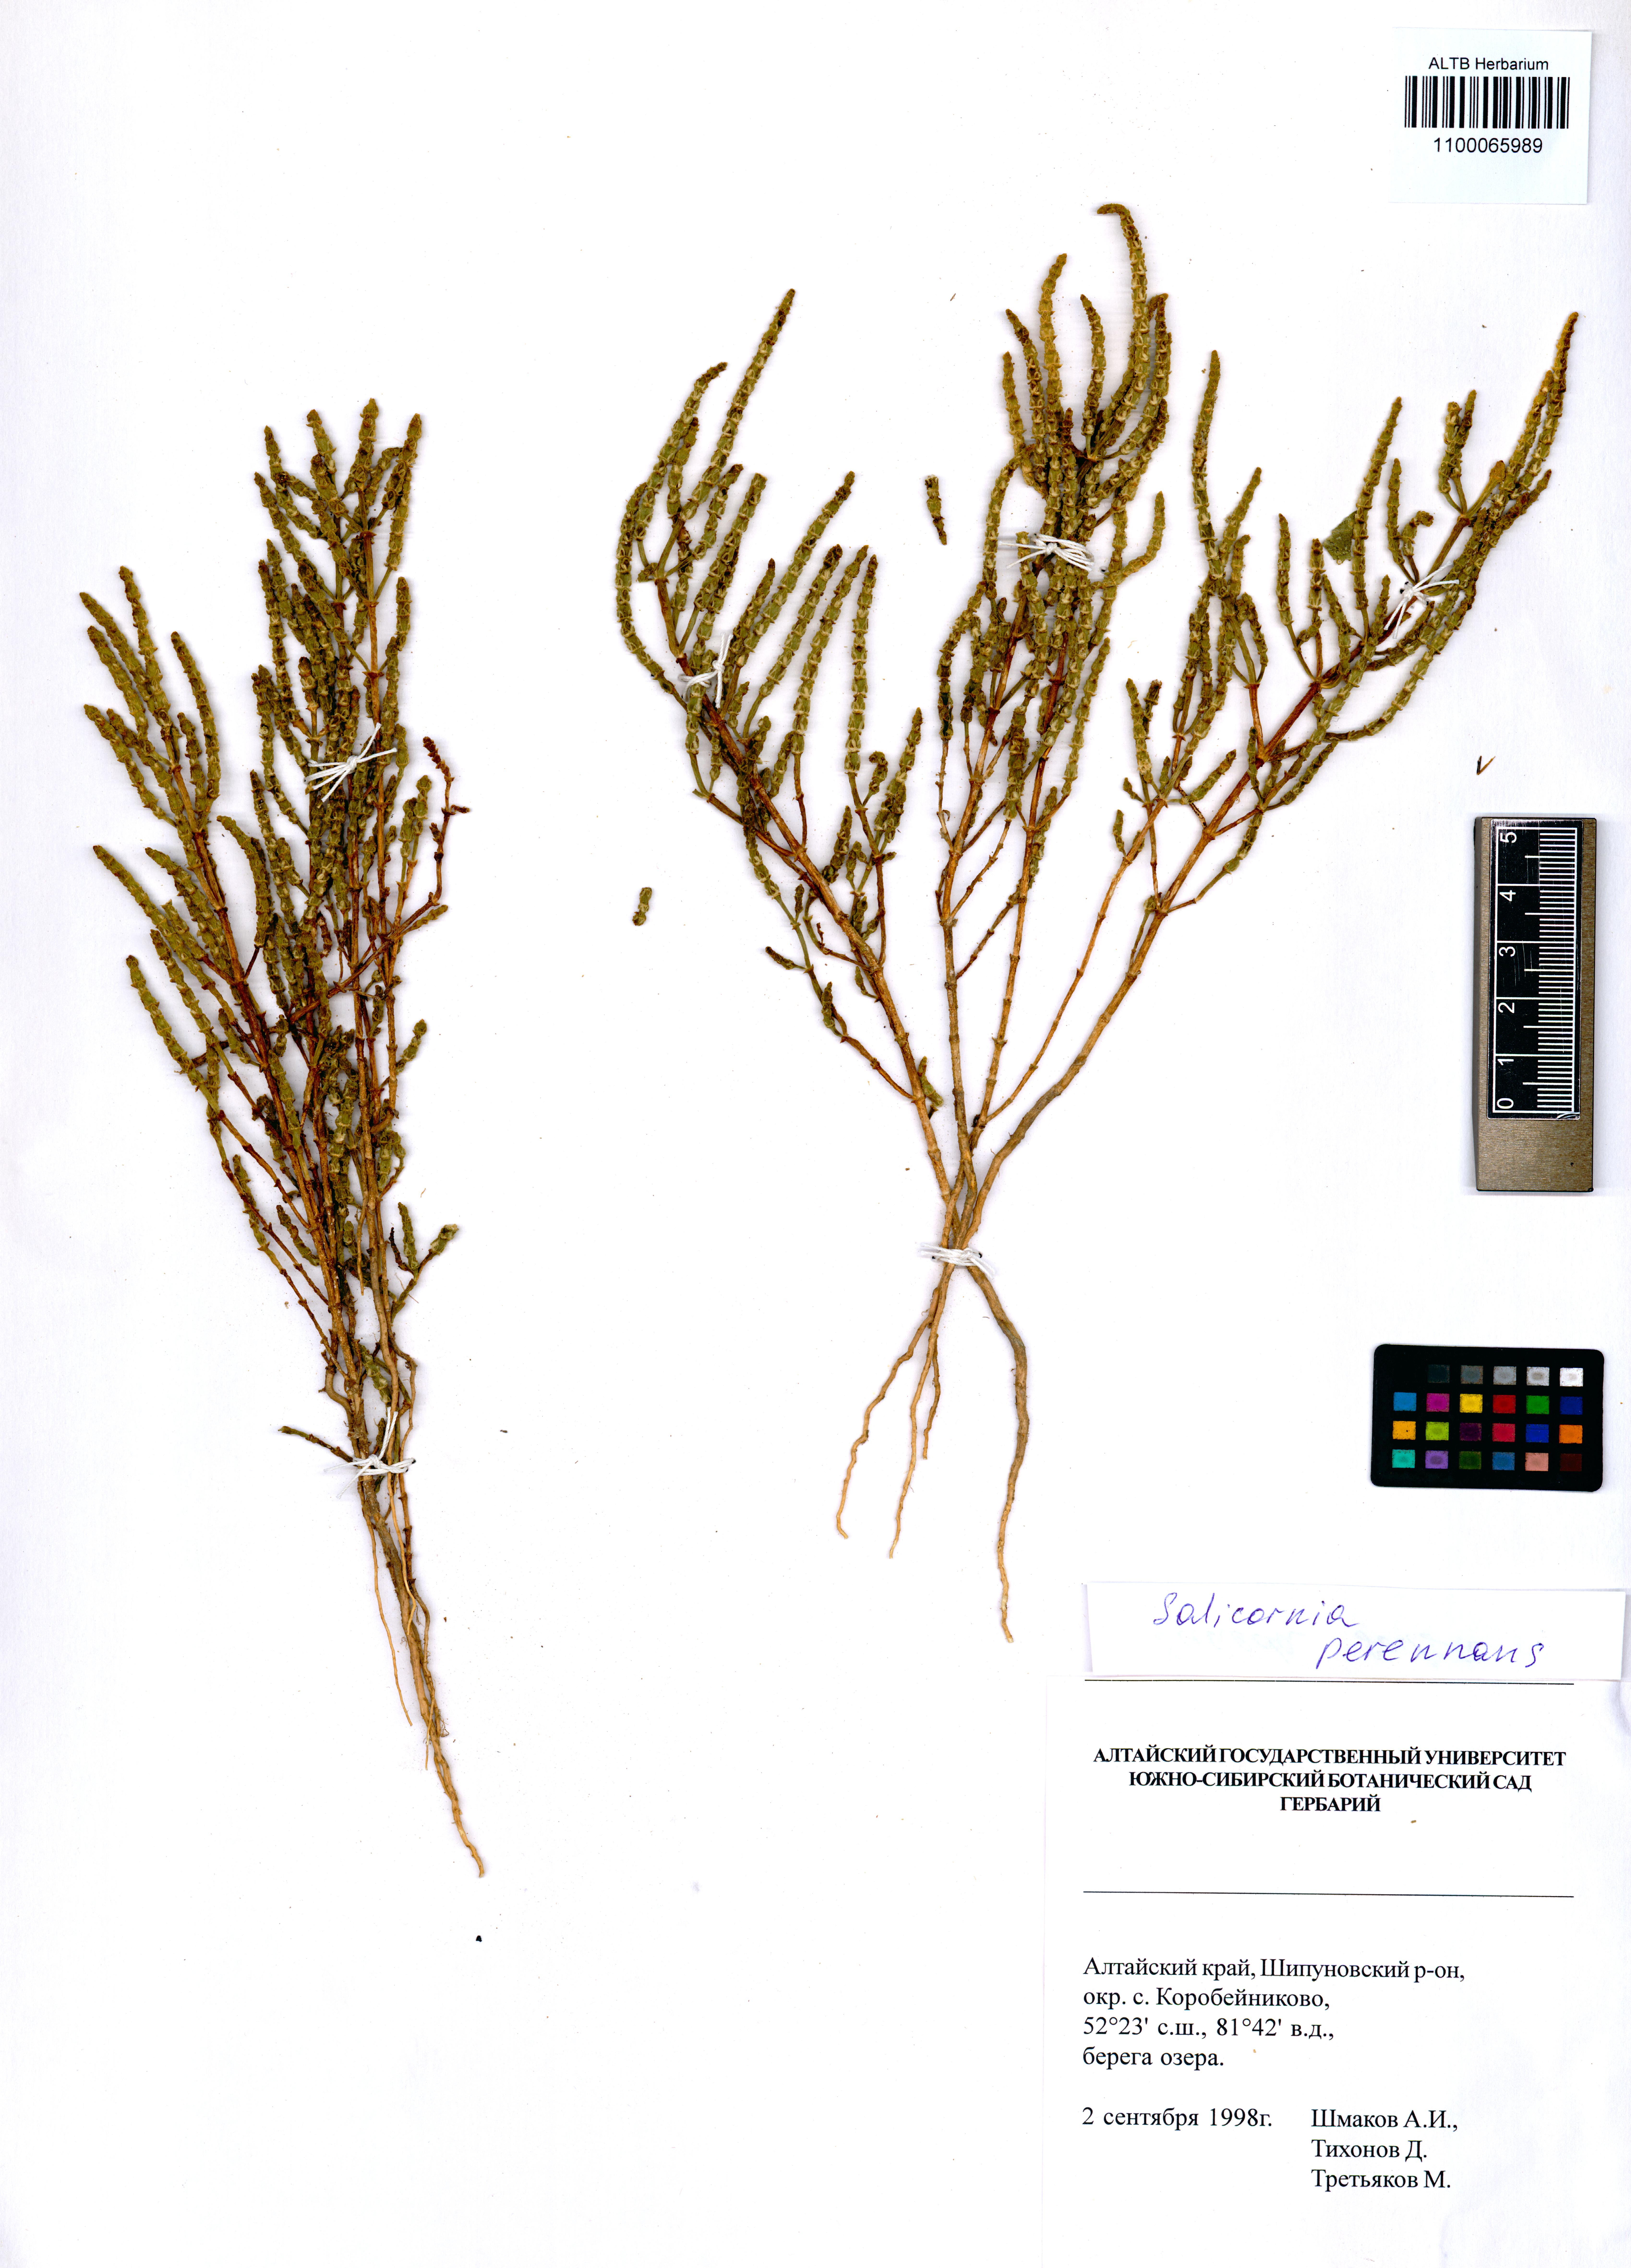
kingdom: Plantae
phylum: Tracheophyta
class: Magnoliopsida
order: Caryophyllales
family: Amaranthaceae
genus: Atriplex
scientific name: Atriplex fera
